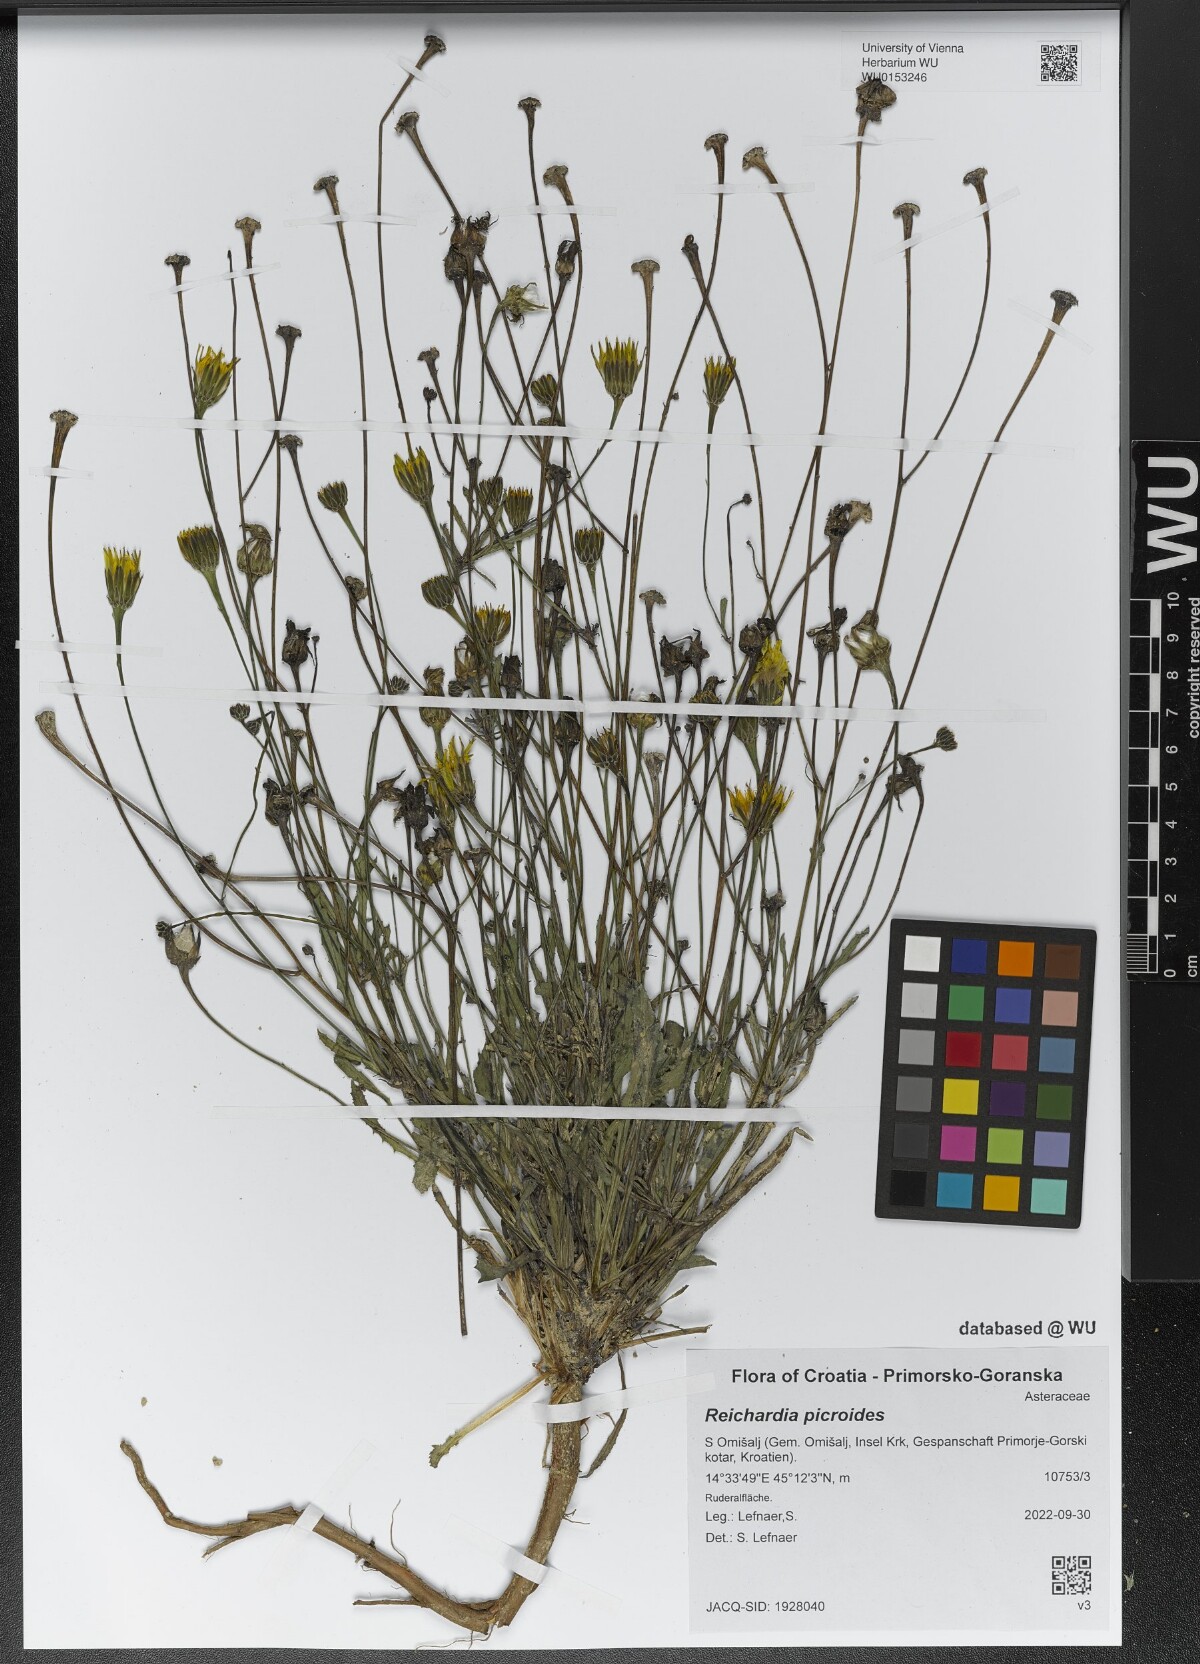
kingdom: Plantae
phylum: Tracheophyta
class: Magnoliopsida
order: Asterales
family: Asteraceae
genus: Reichardia
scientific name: Reichardia picroides
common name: Common brighteyes
